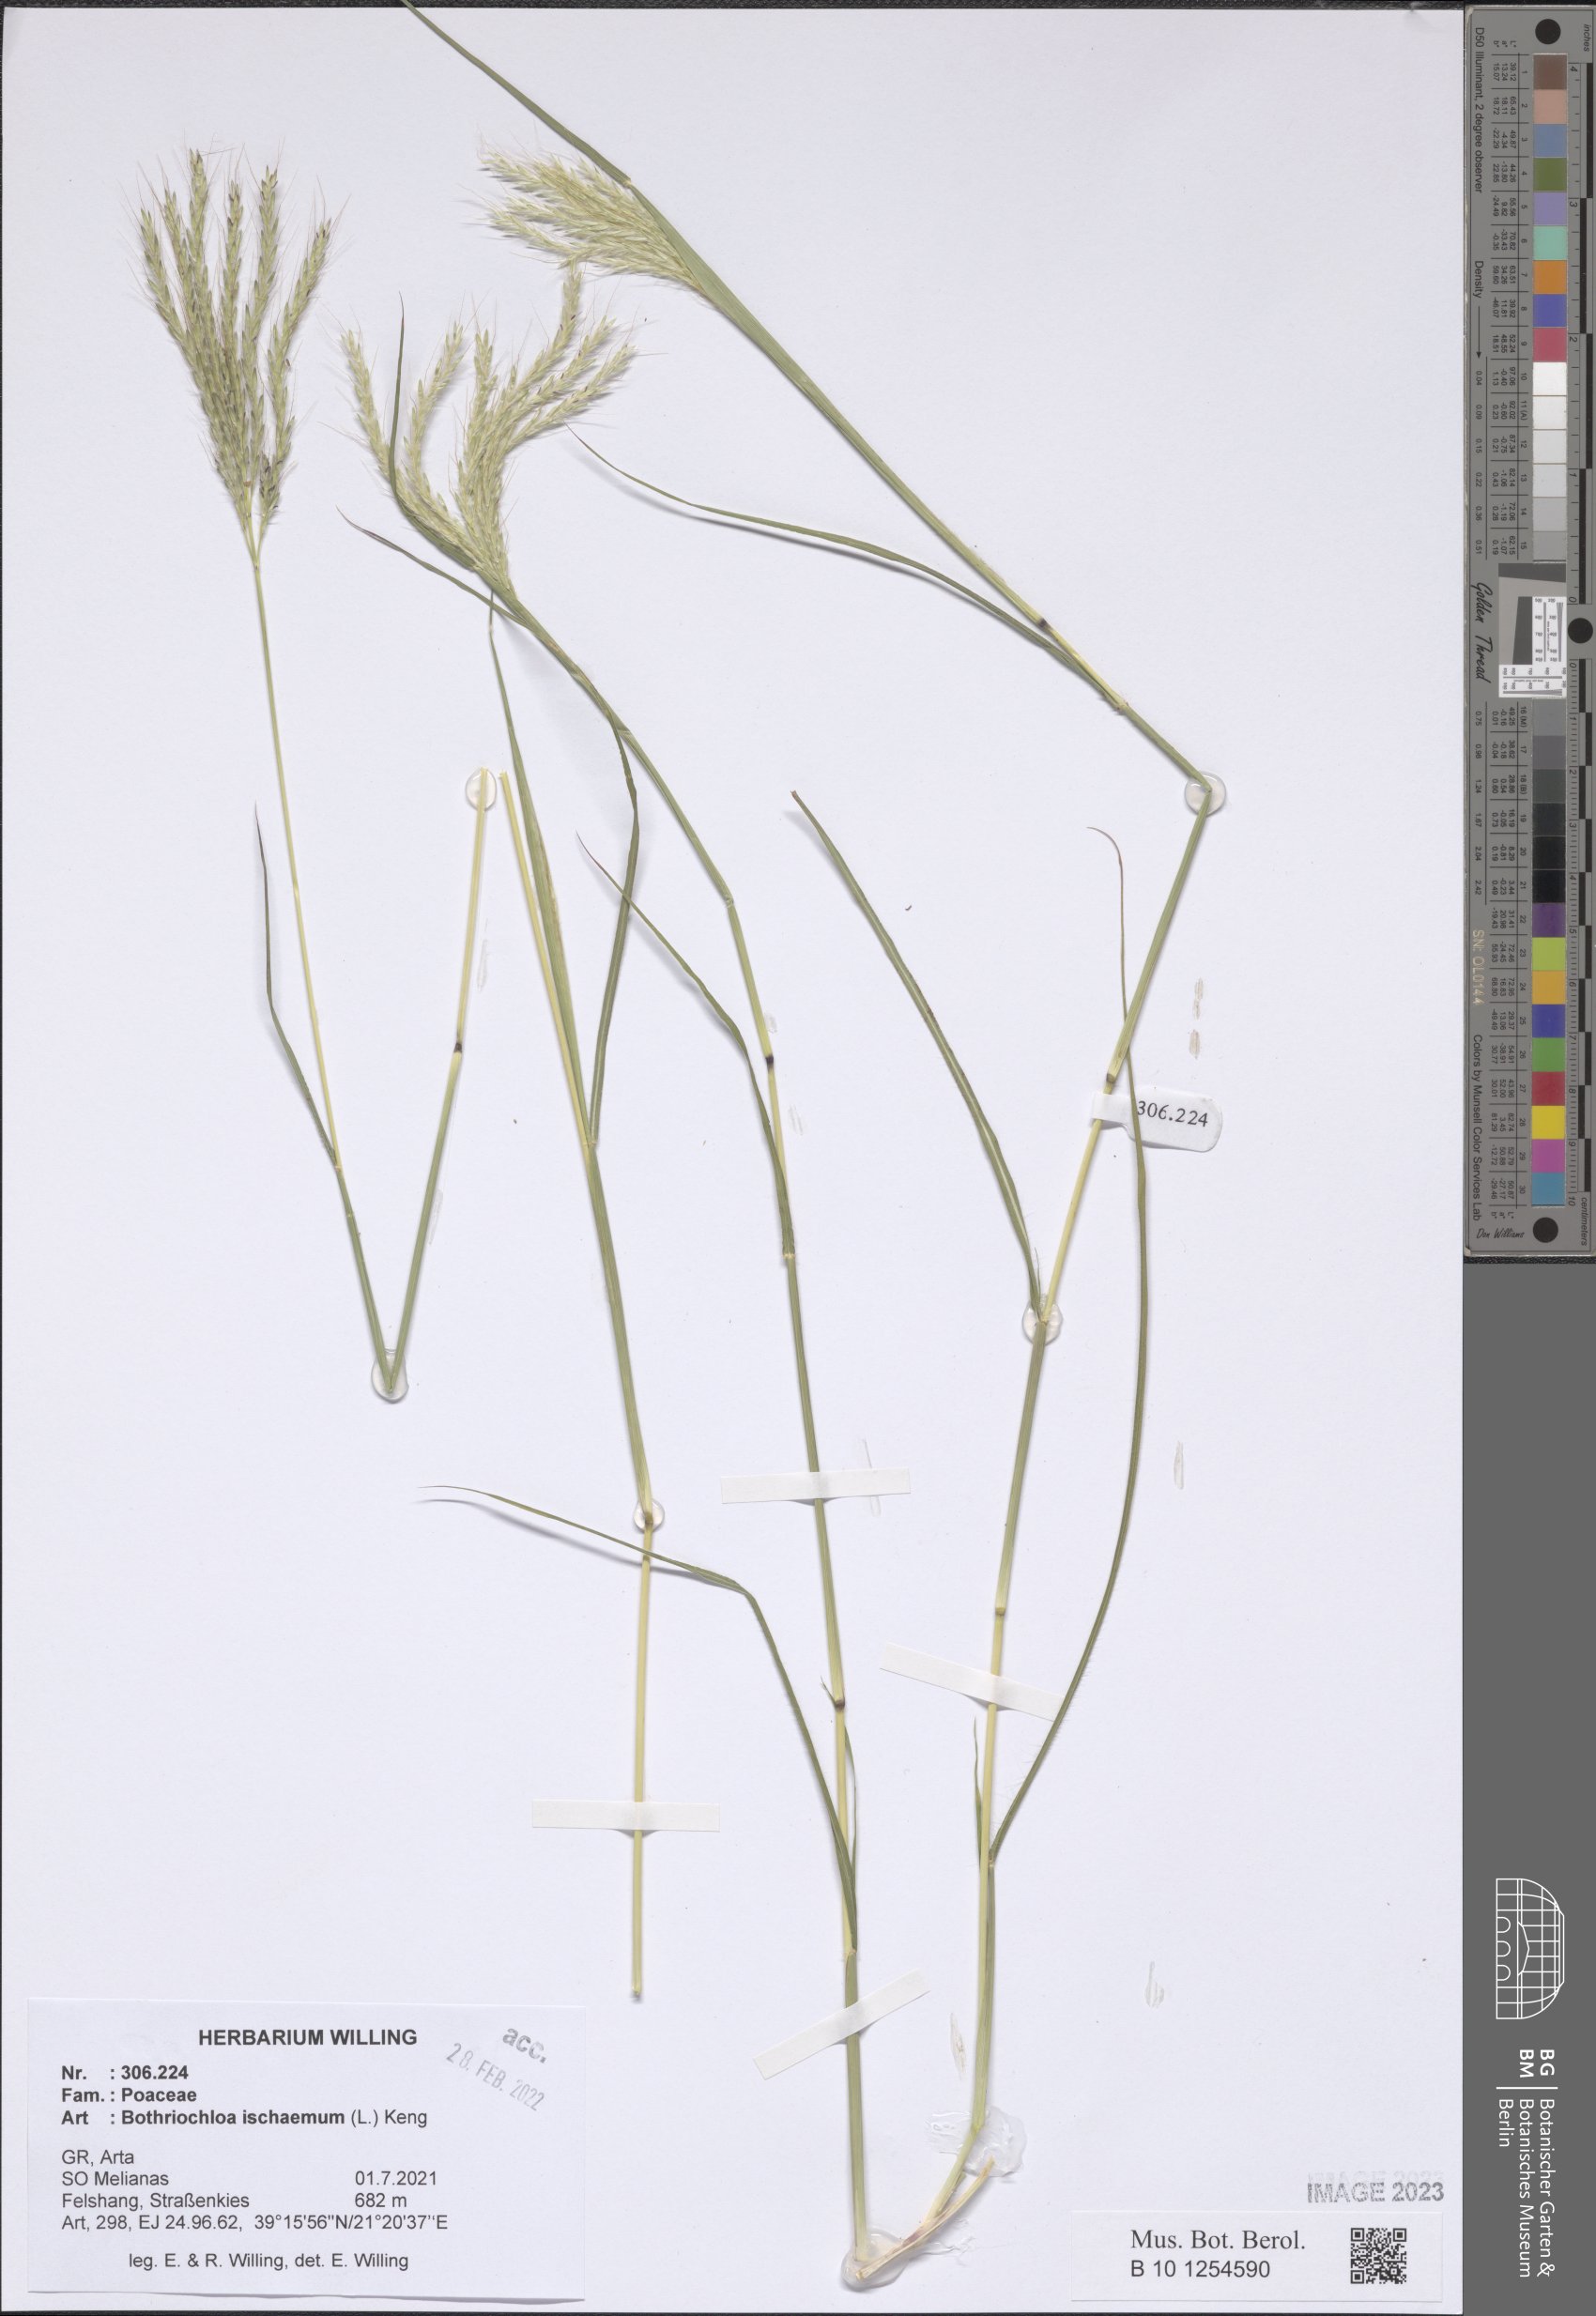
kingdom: Plantae
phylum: Tracheophyta
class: Liliopsida
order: Poales
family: Poaceae
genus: Bothriochloa
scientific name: Bothriochloa ischaemum
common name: Yellow bluestem
